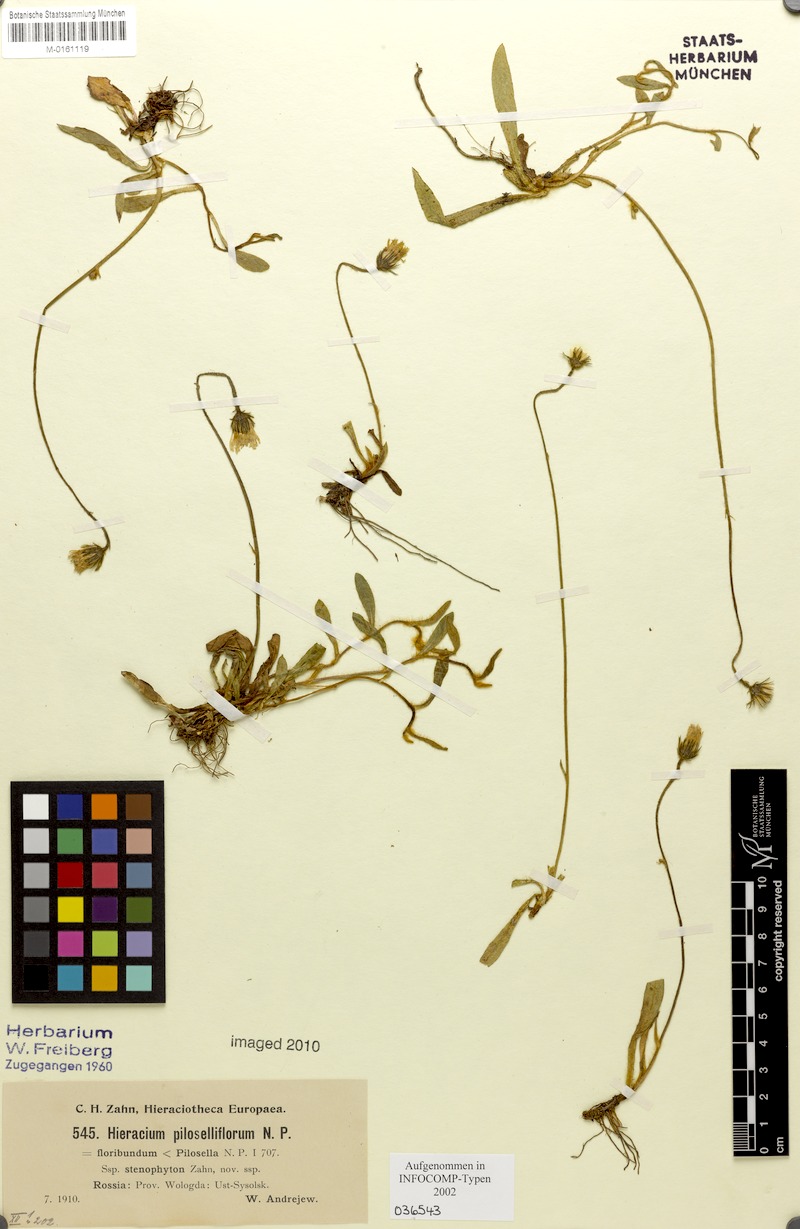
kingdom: Plantae
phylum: Tracheophyta
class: Magnoliopsida
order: Asterales
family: Asteraceae
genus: Pilosella
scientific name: Pilosella piloselliflora
